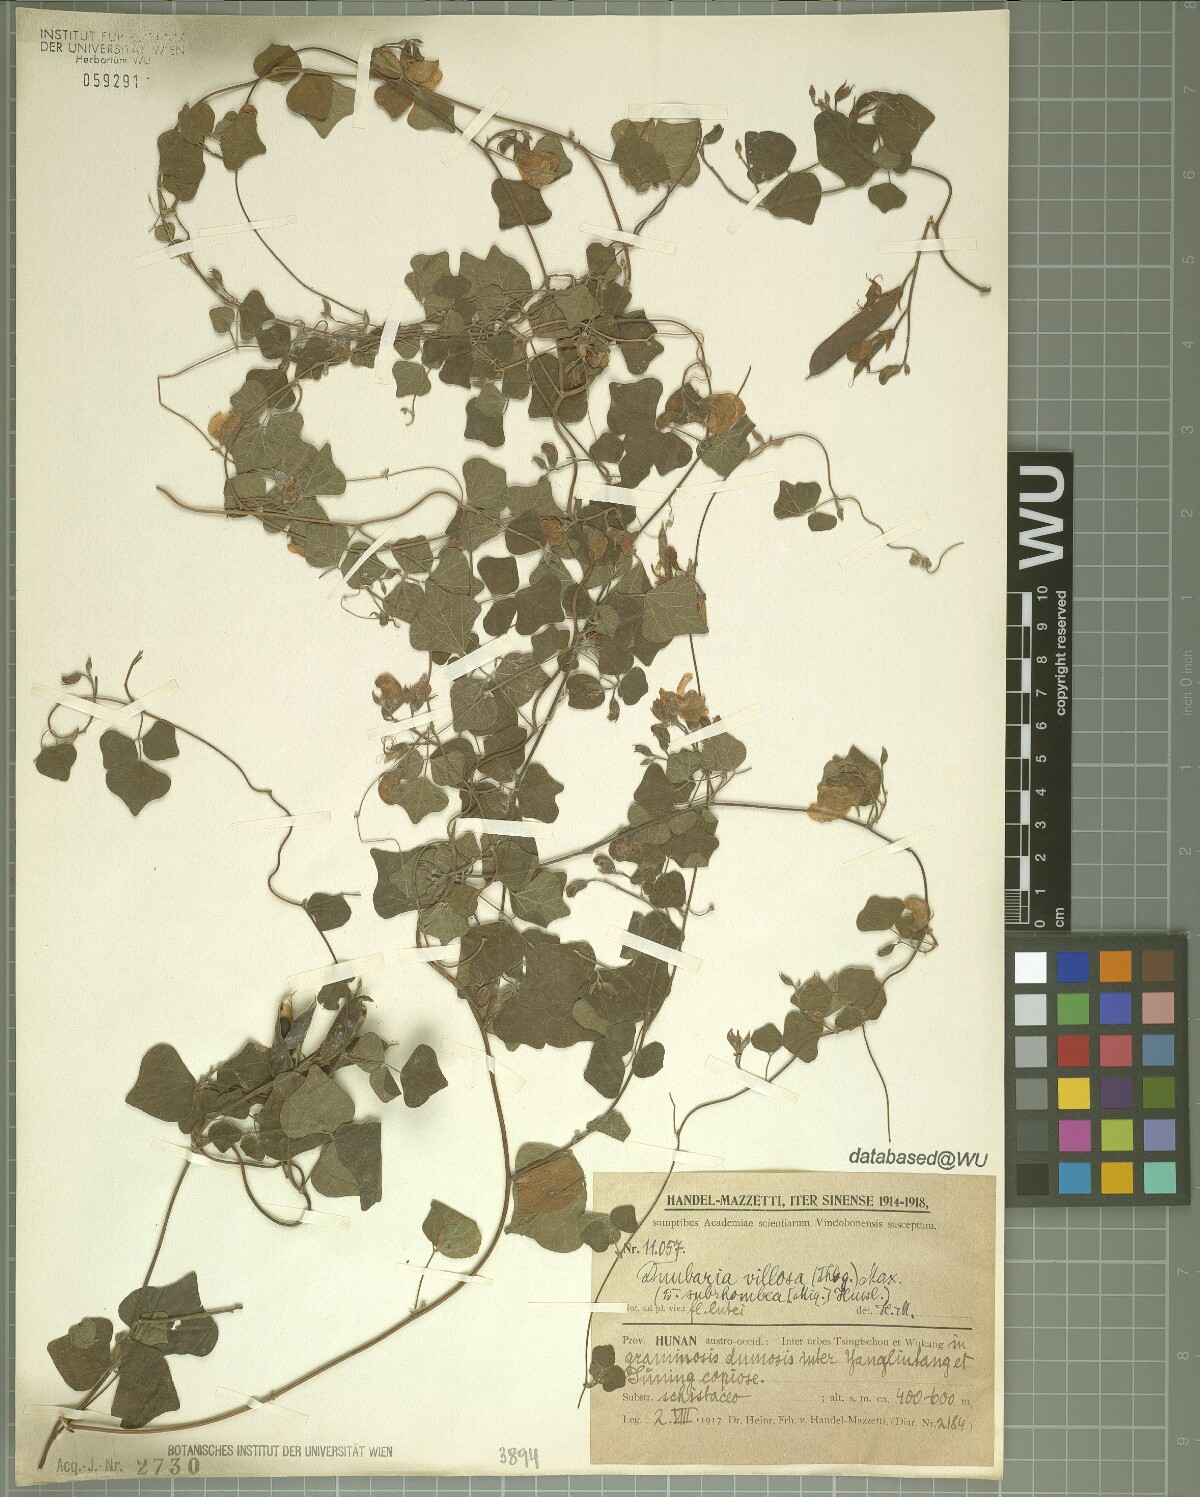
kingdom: Plantae
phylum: Tracheophyta
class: Magnoliopsida
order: Fabales
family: Fabaceae
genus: Dunbaria
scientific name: Dunbaria villosa
